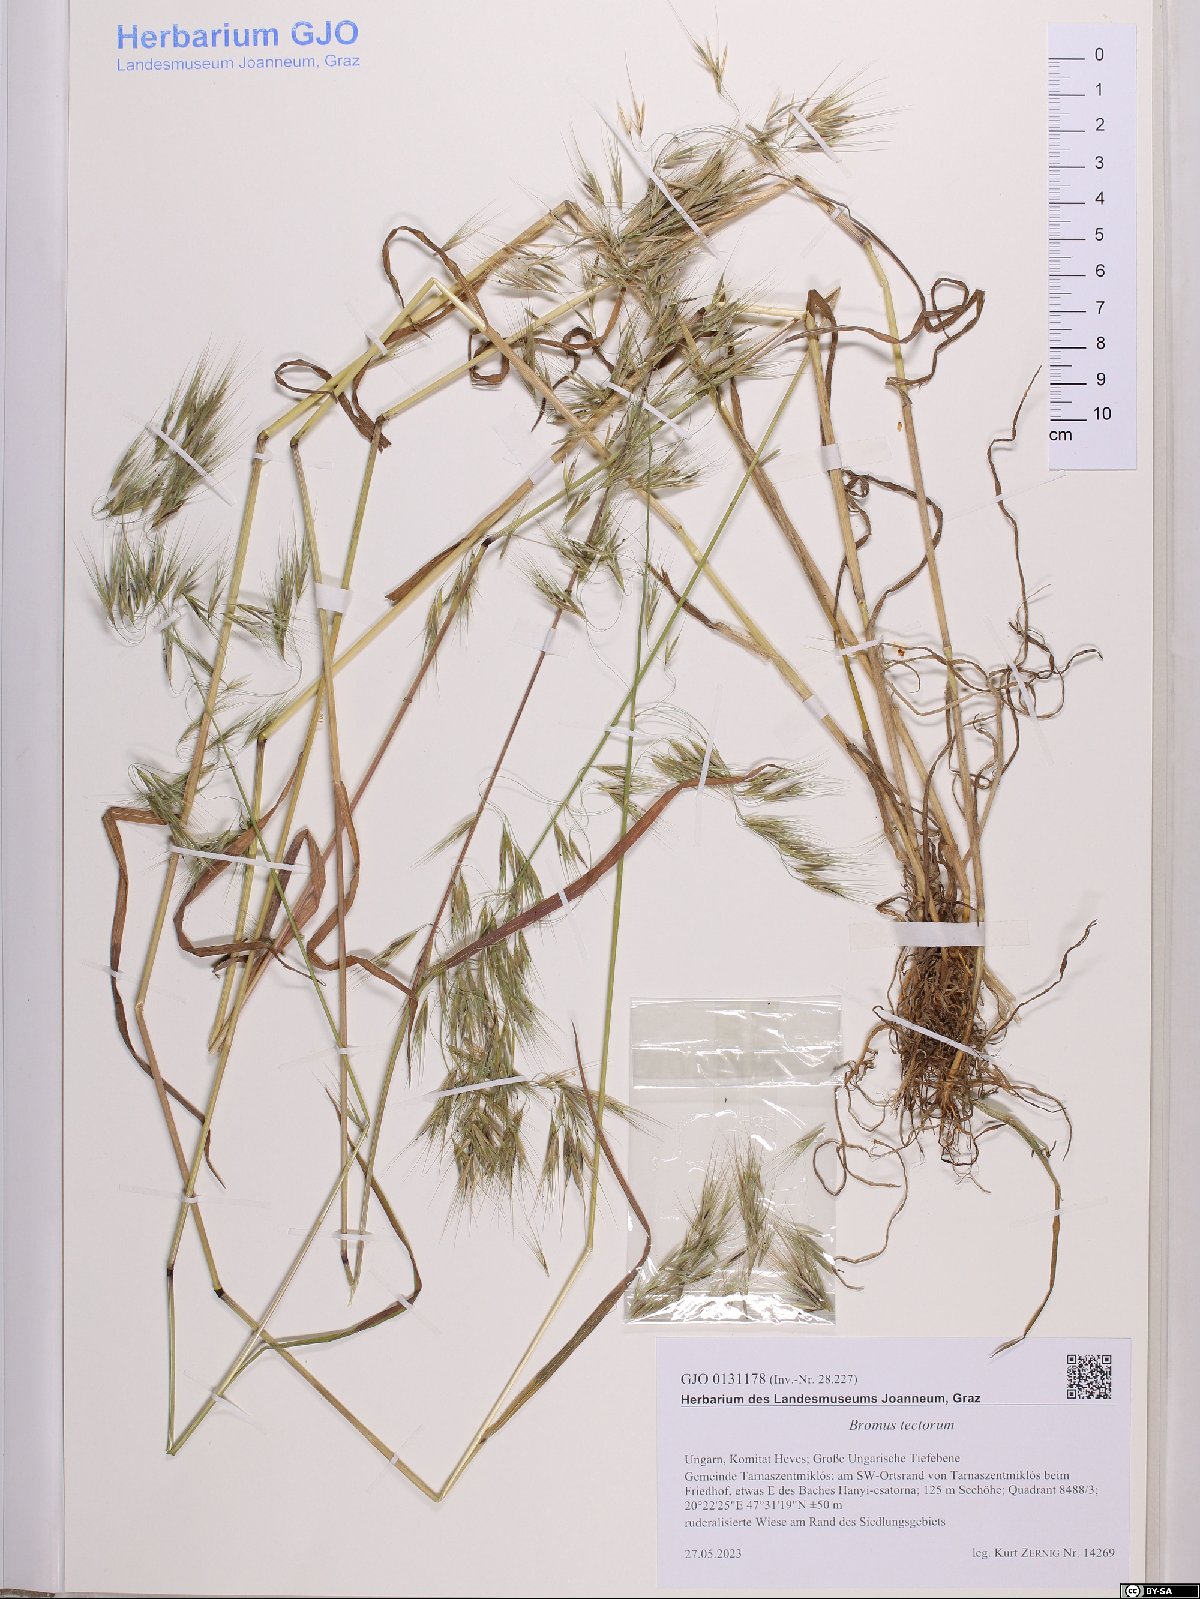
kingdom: Plantae
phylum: Tracheophyta
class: Liliopsida
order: Poales
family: Poaceae
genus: Bromus
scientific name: Bromus tectorum
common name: Cheatgrass
